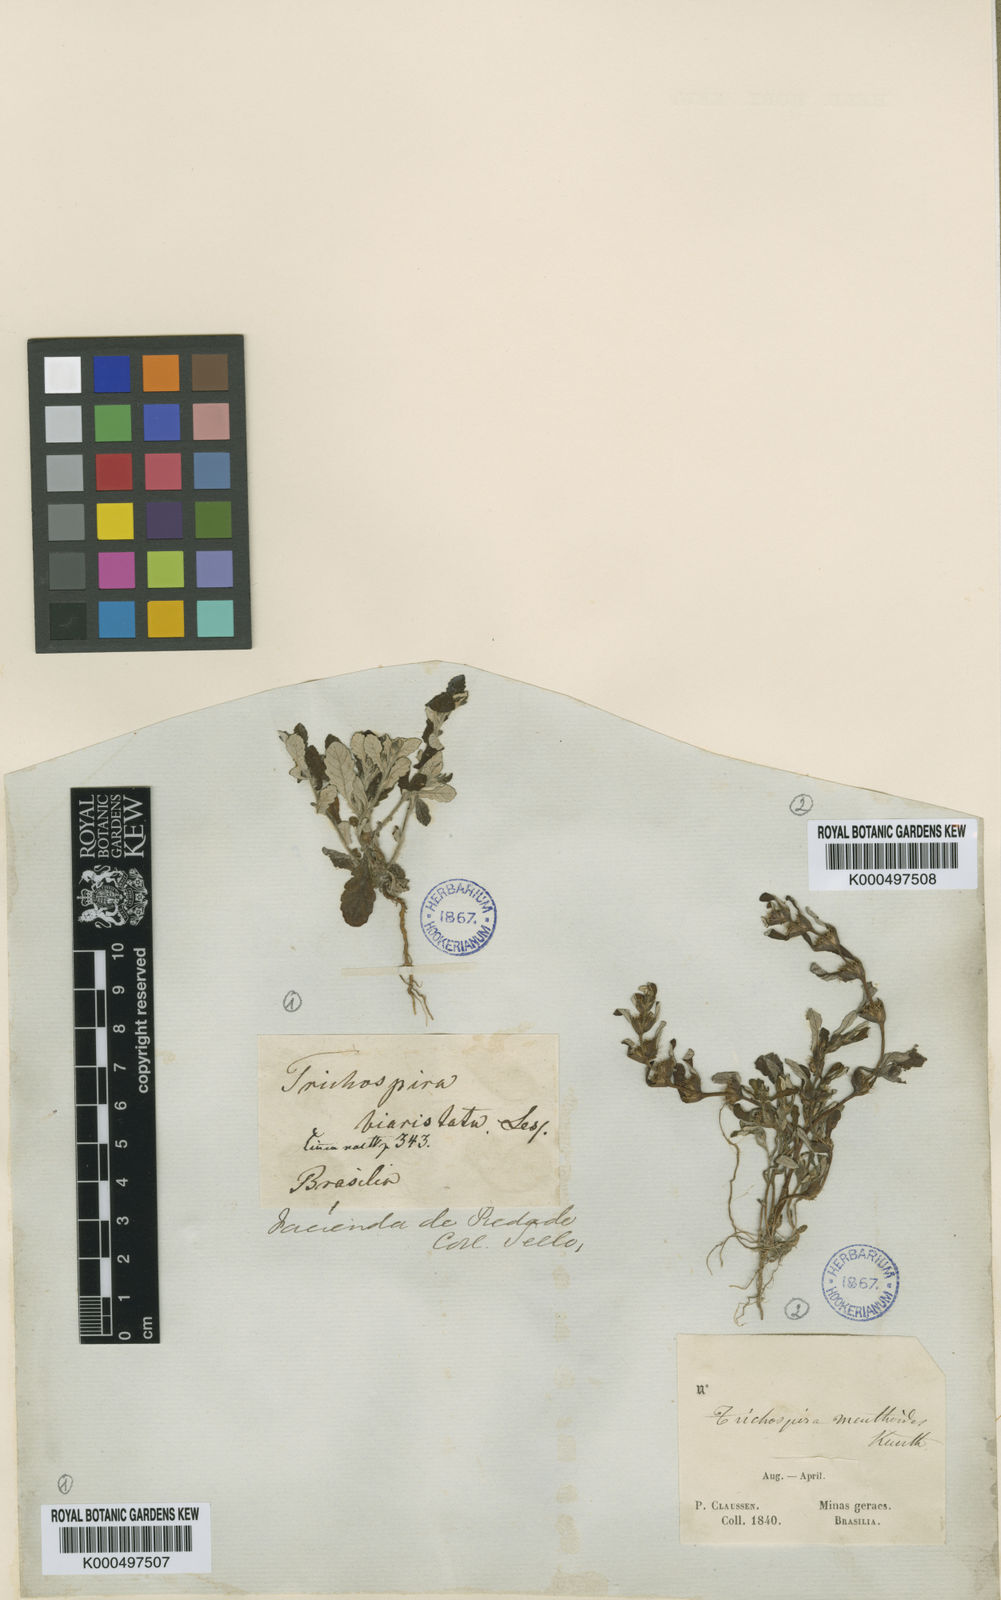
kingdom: Chromista
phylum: Ciliophora
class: Kinetofragminophora
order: Trichostomatida
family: Trichospiridae
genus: Trichospira
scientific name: Trichospira verticillata
